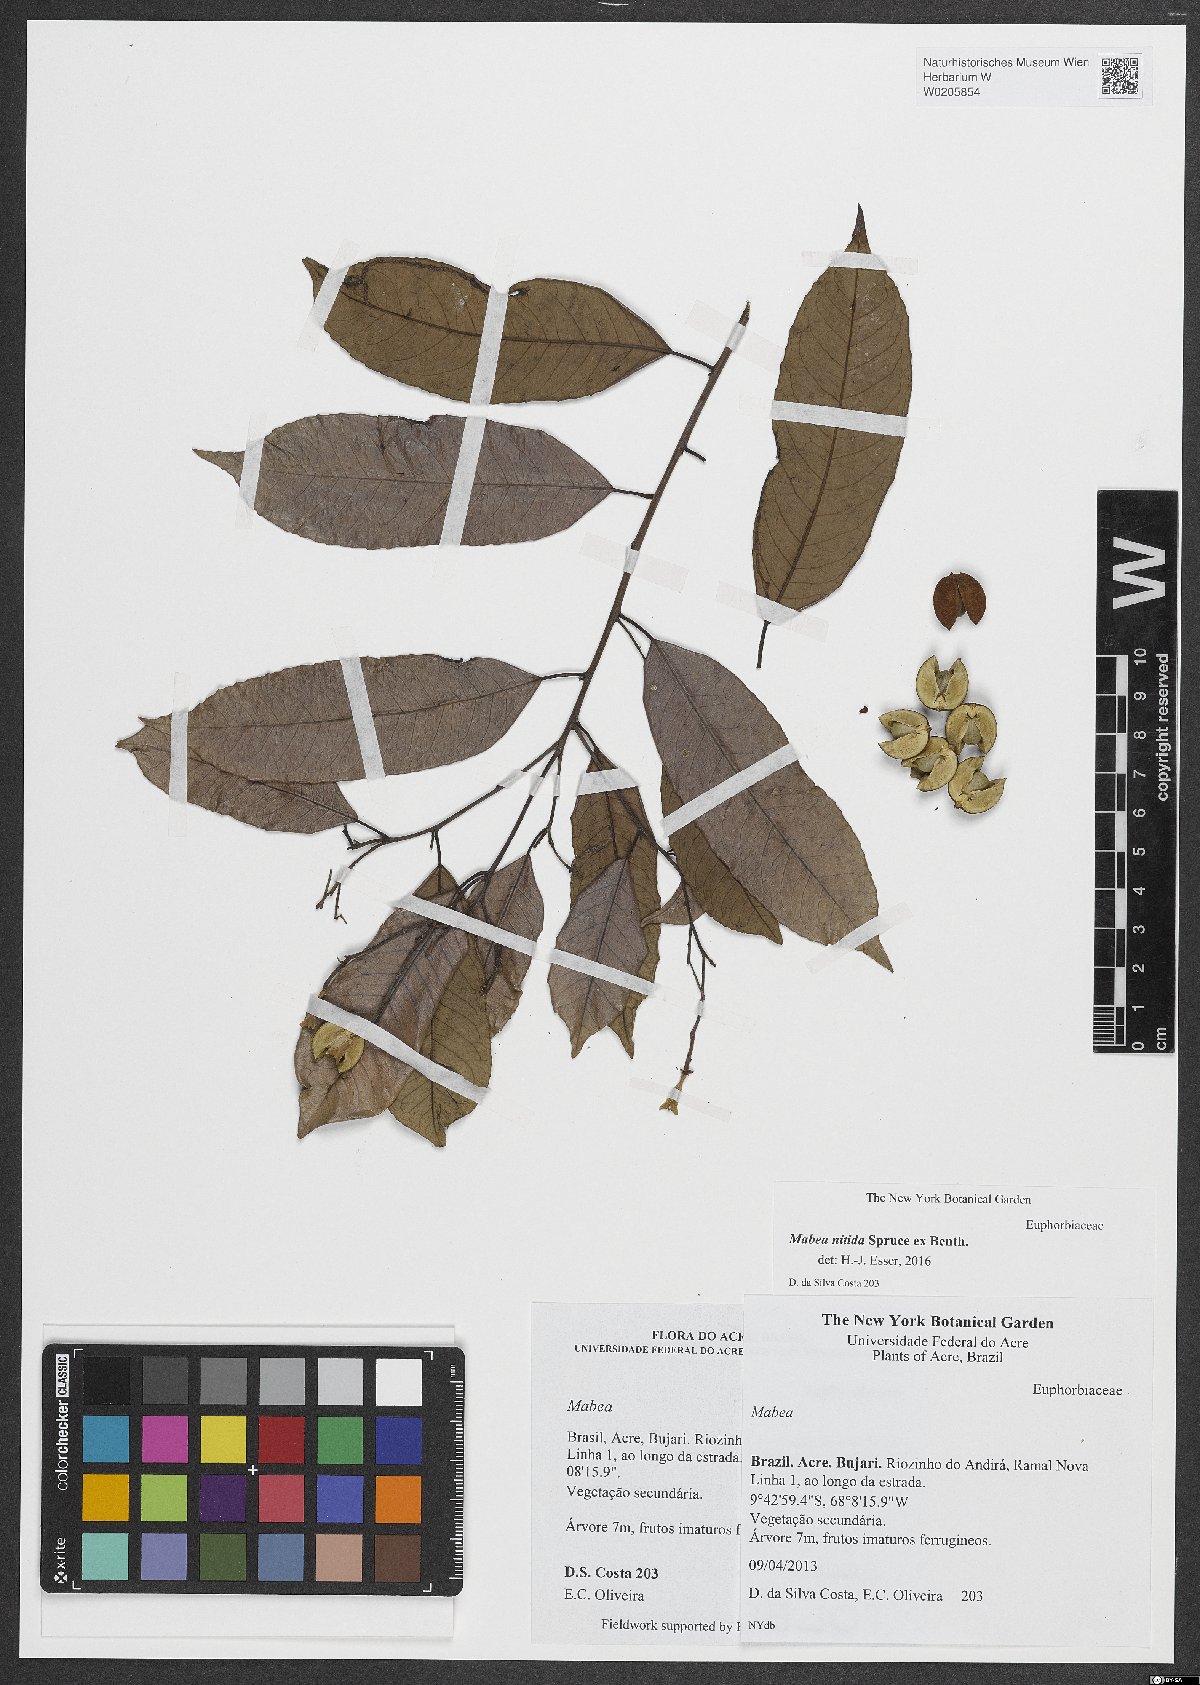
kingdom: Plantae
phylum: Tracheophyta
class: Magnoliopsida
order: Malpighiales
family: Euphorbiaceae
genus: Mabea
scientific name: Mabea nitida
